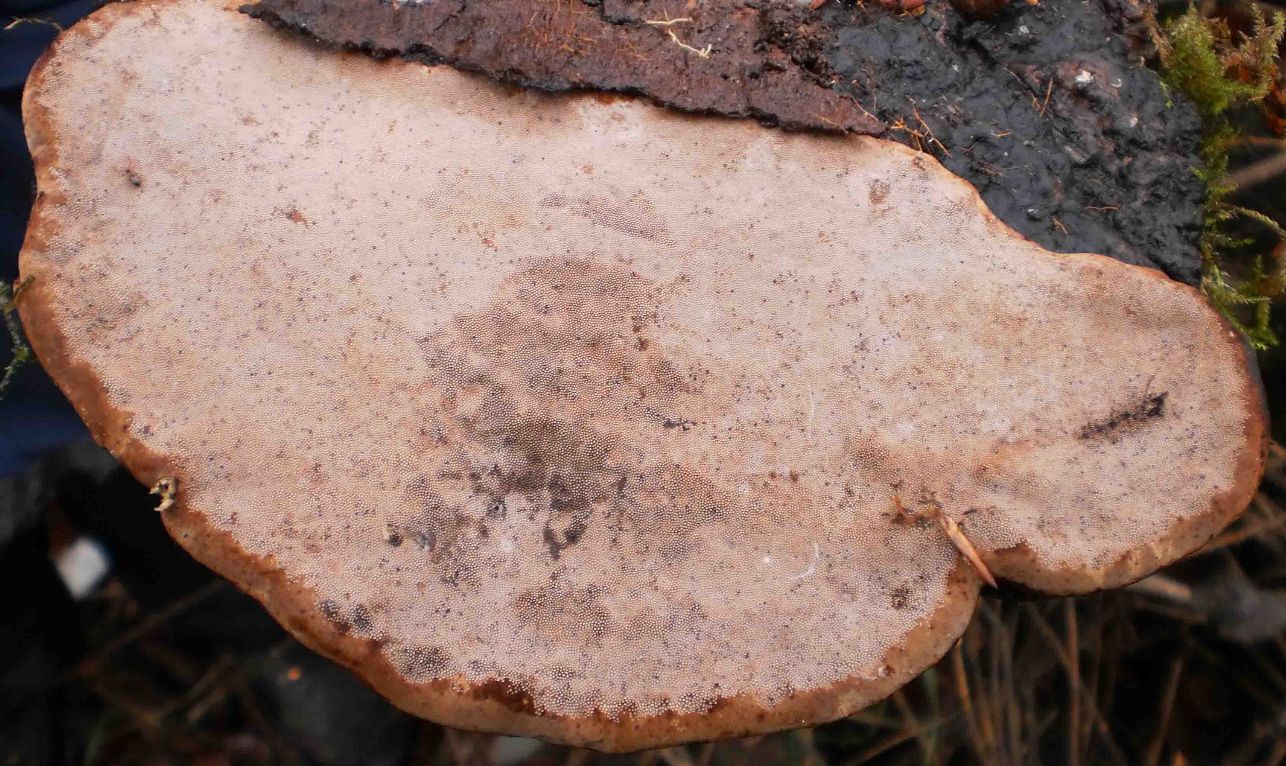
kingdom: Fungi
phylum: Basidiomycota
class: Agaricomycetes
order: Polyporales
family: Polyporaceae
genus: Fomes
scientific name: Fomes fomentarius
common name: tøndersvamp
